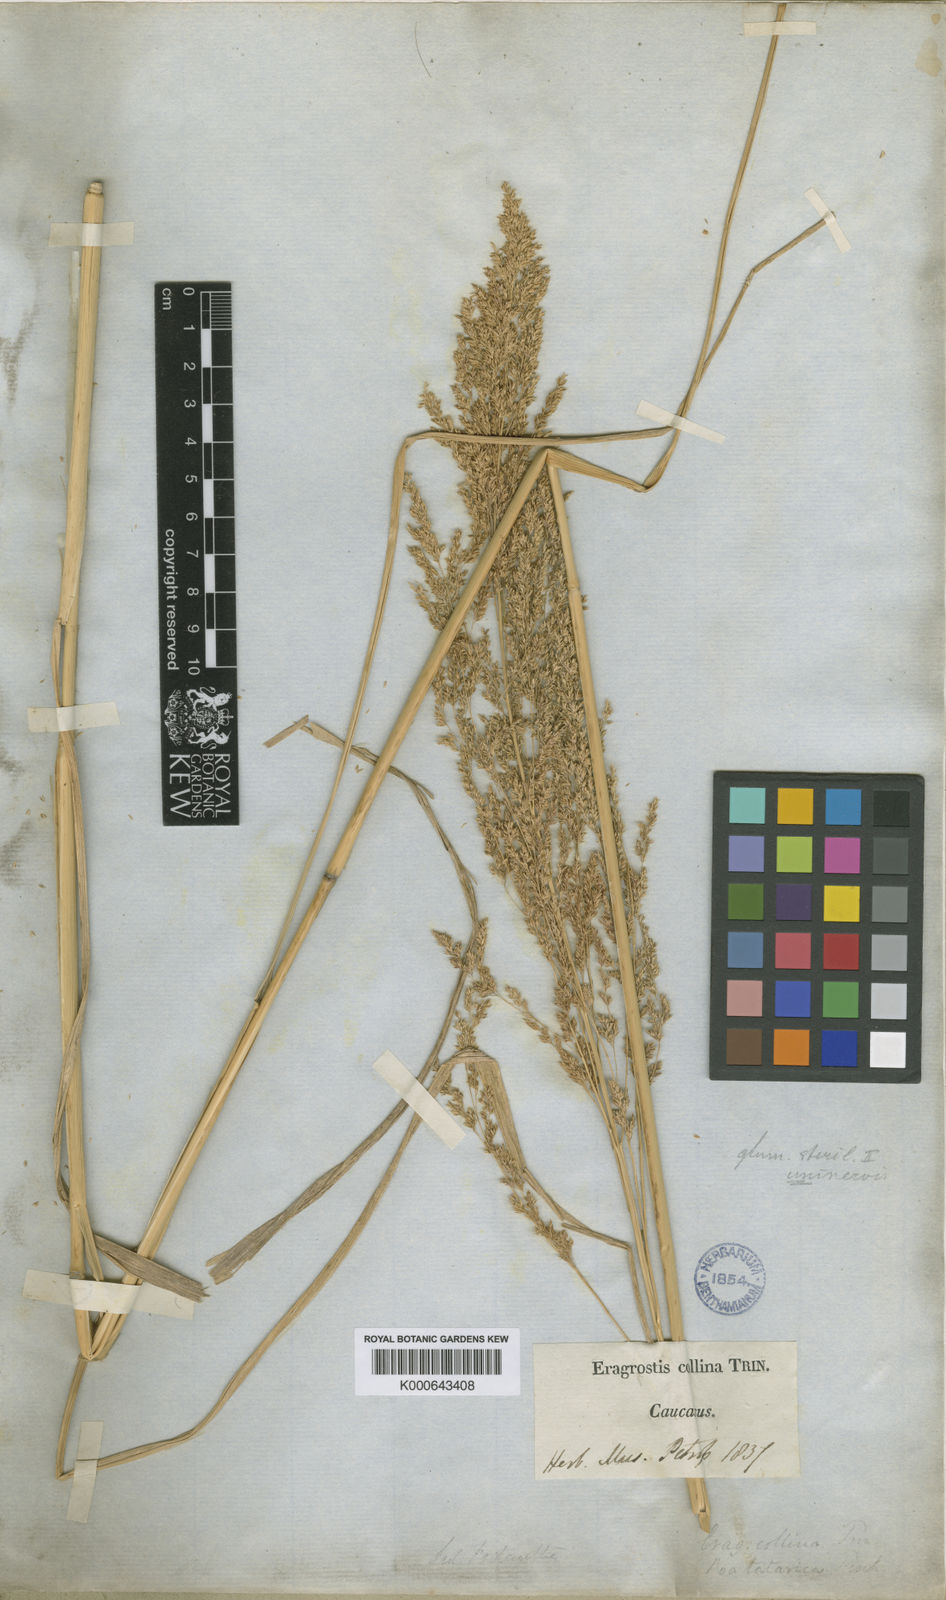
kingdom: Plantae
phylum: Tracheophyta
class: Liliopsida
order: Poales
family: Poaceae
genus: Eragrostis
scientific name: Eragrostis collina
